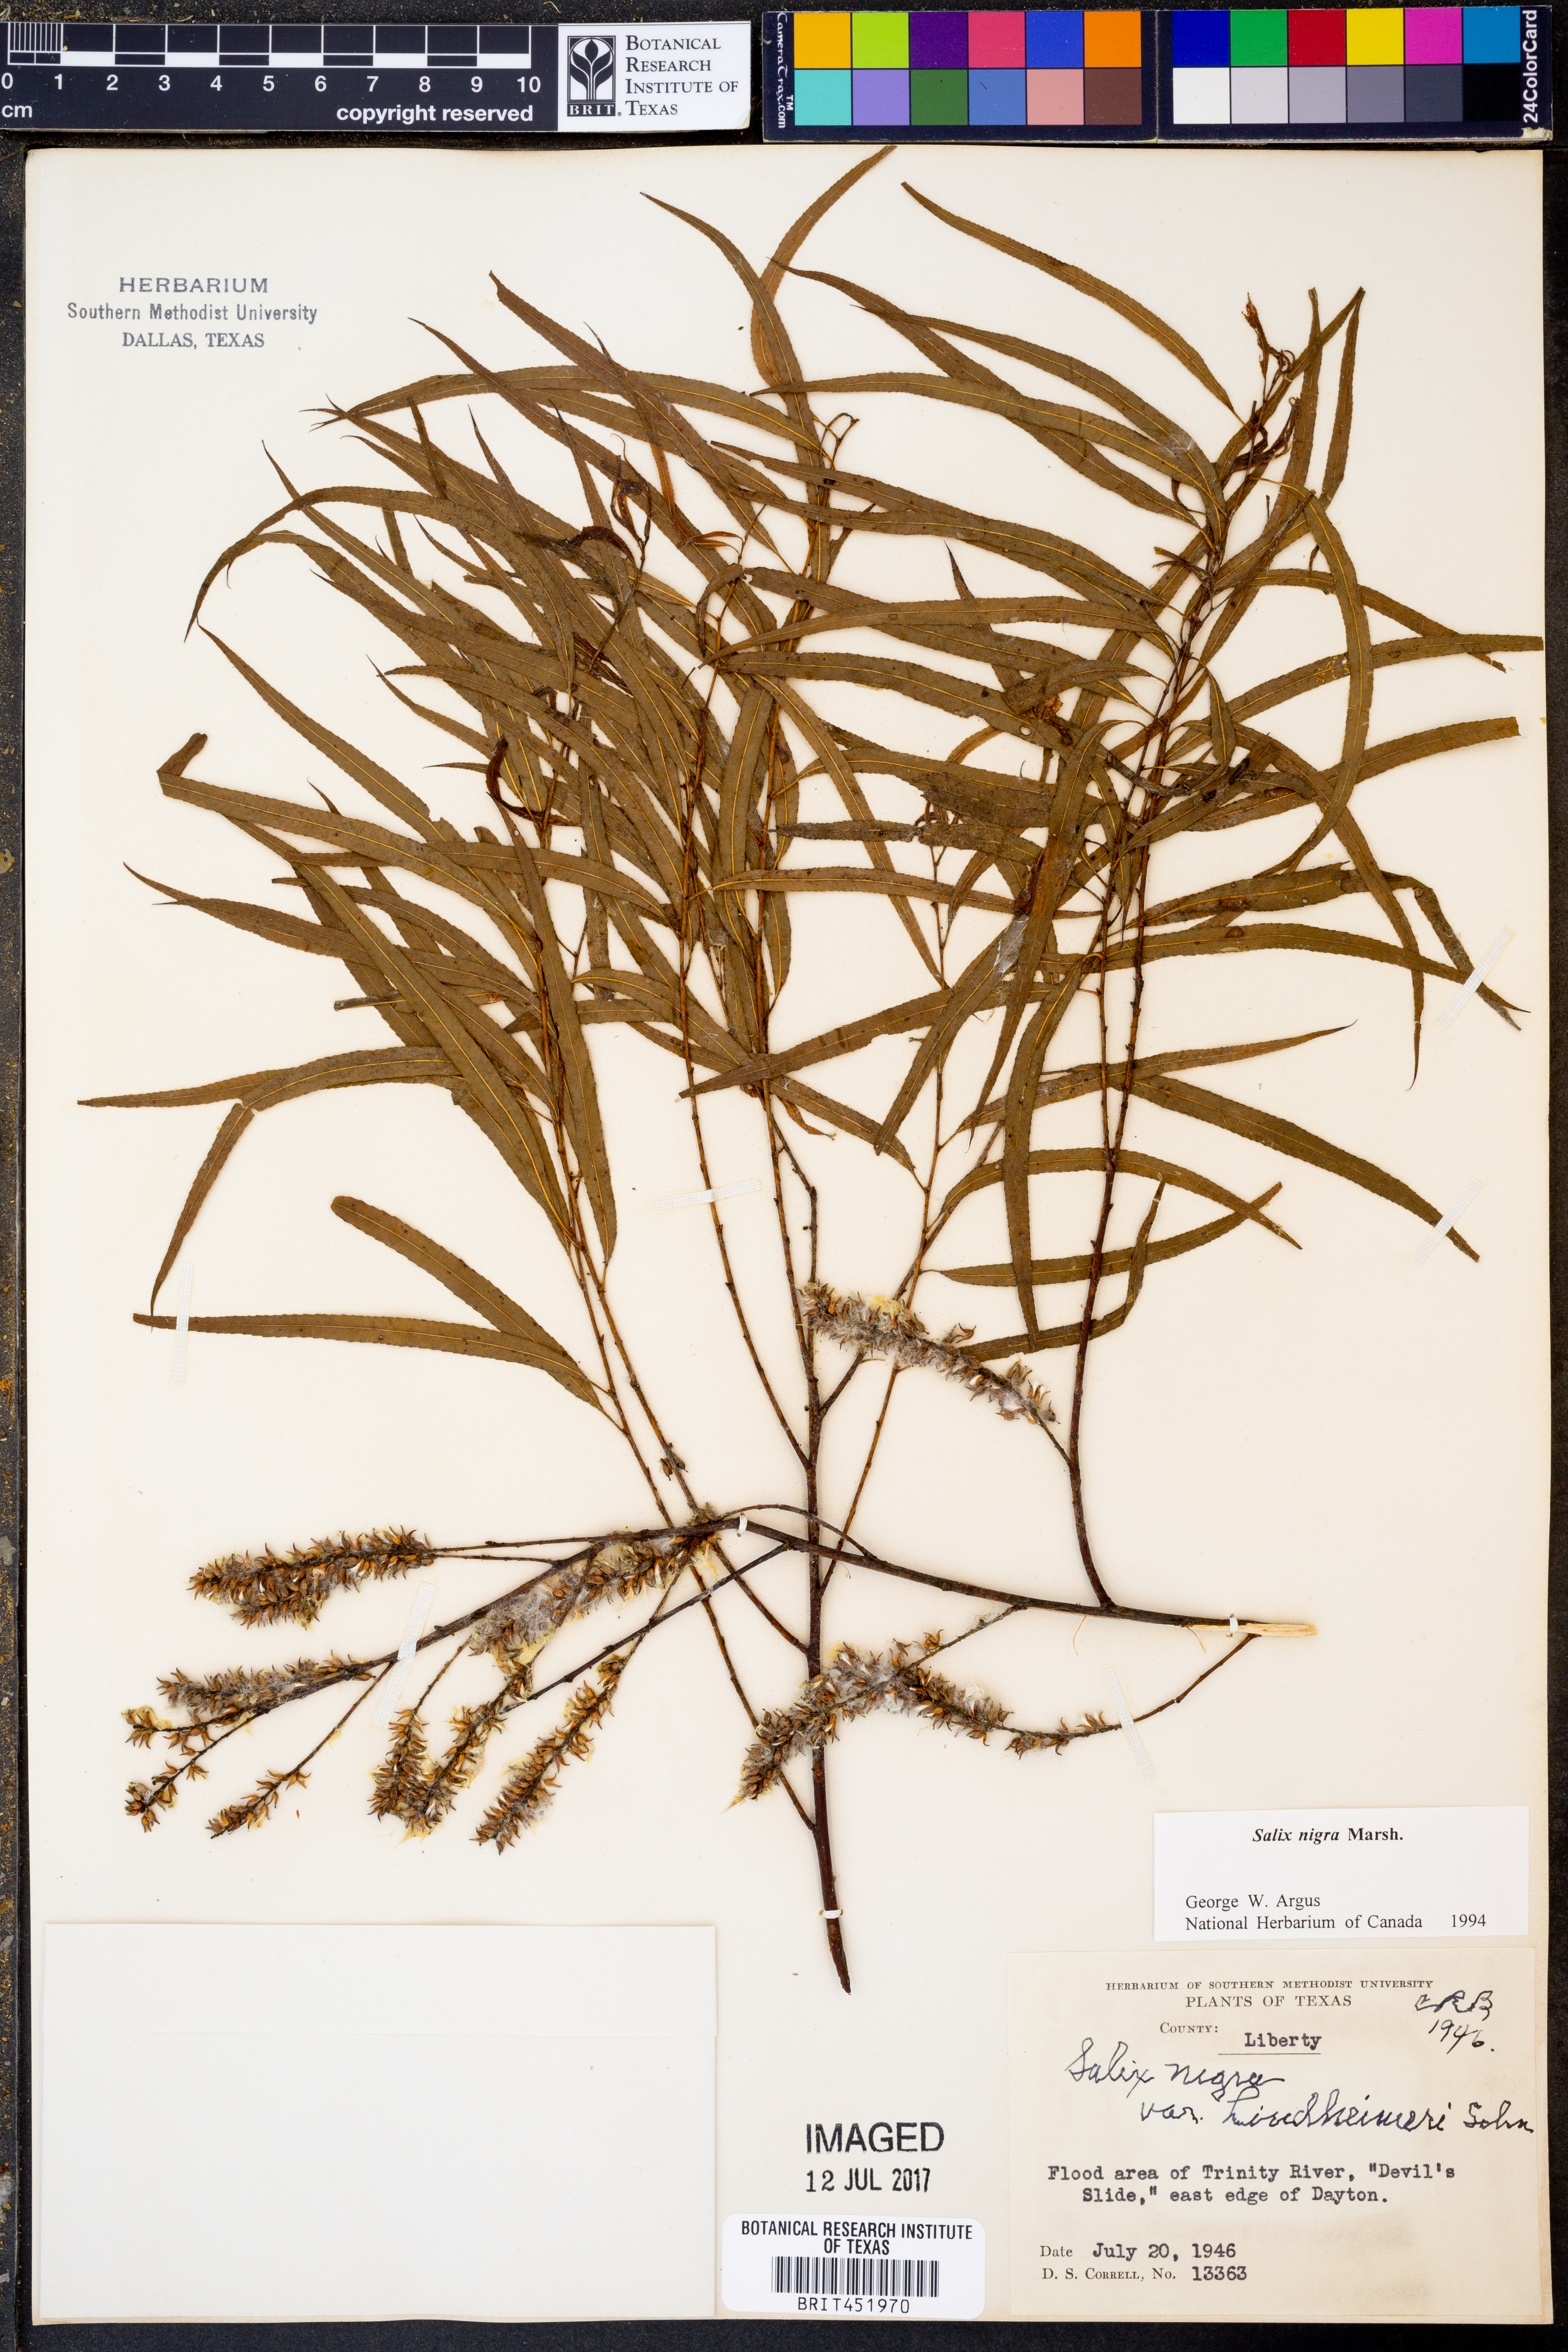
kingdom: Plantae
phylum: Tracheophyta
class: Magnoliopsida
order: Malpighiales
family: Salicaceae
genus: Salix
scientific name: Salix nigra
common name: Black willow
